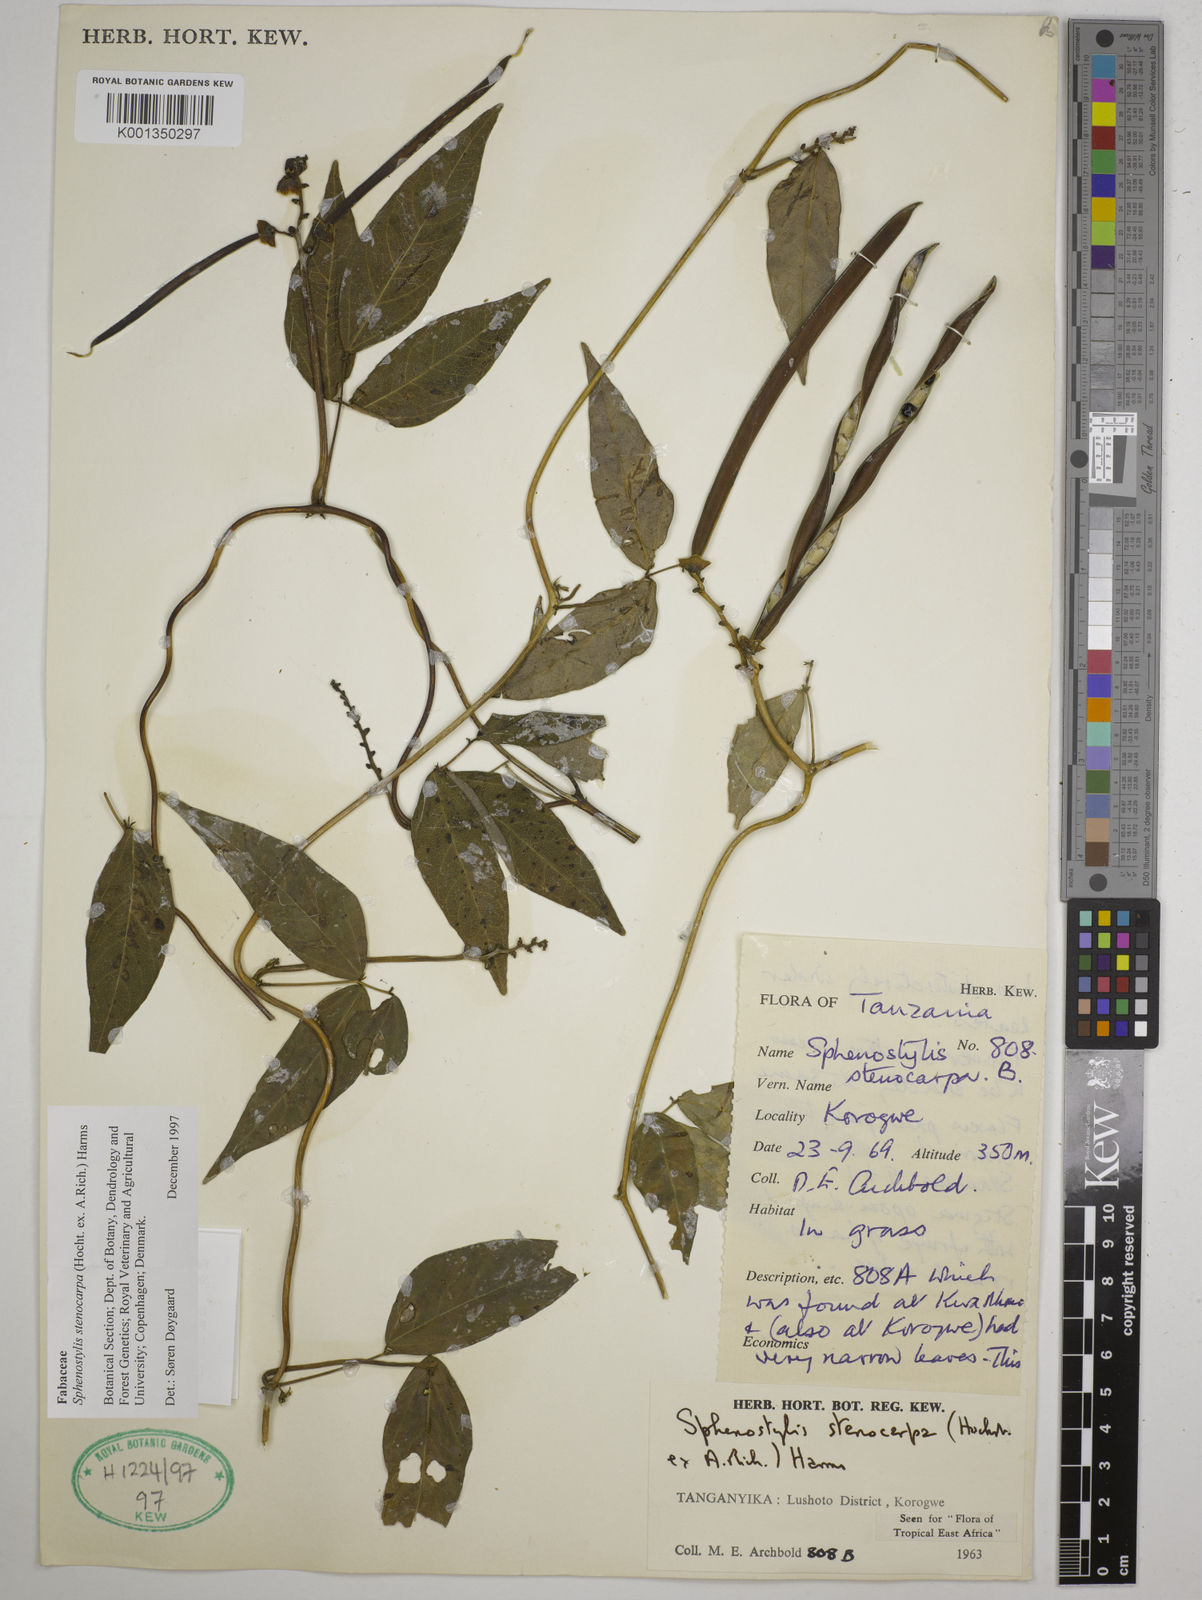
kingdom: Plantae
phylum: Tracheophyta
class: Magnoliopsida
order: Fabales
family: Fabaceae
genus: Sphenostylis
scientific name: Sphenostylis stenocarpa
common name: Yam-pea
